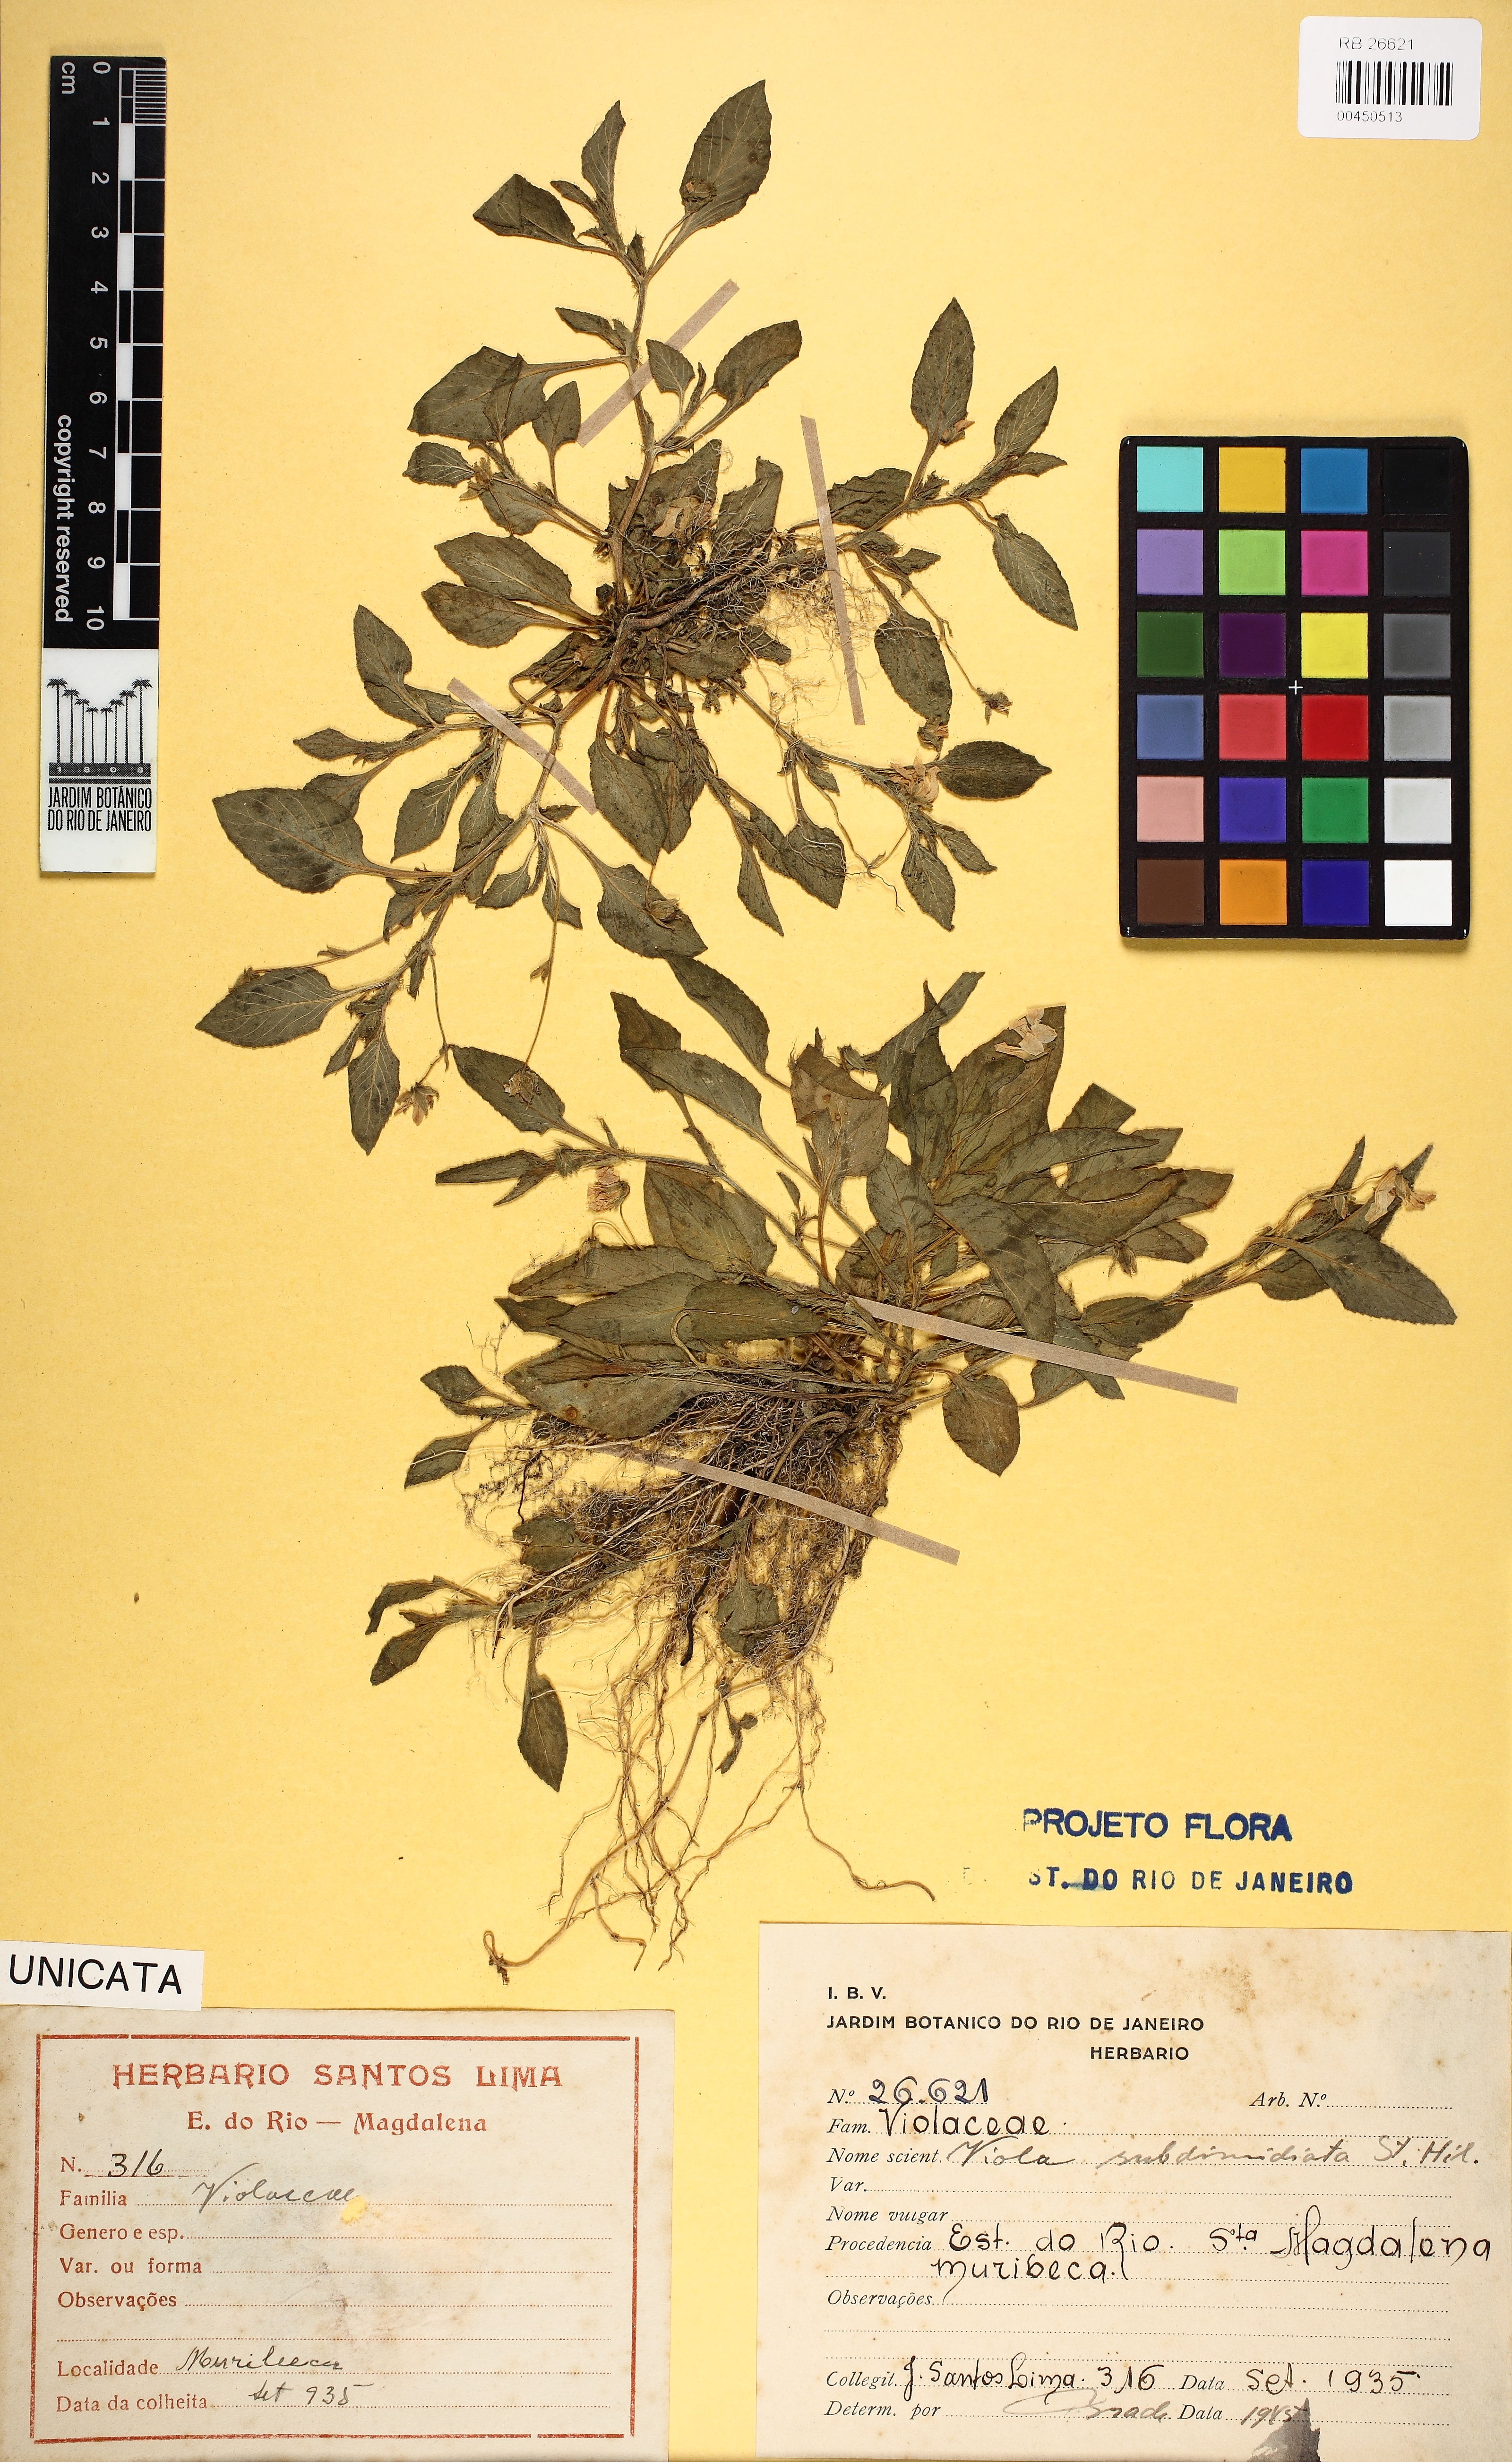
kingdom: Plantae
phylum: Tracheophyta
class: Magnoliopsida
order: Malpighiales
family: Violaceae
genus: Viola
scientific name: Viola subdimidiata
